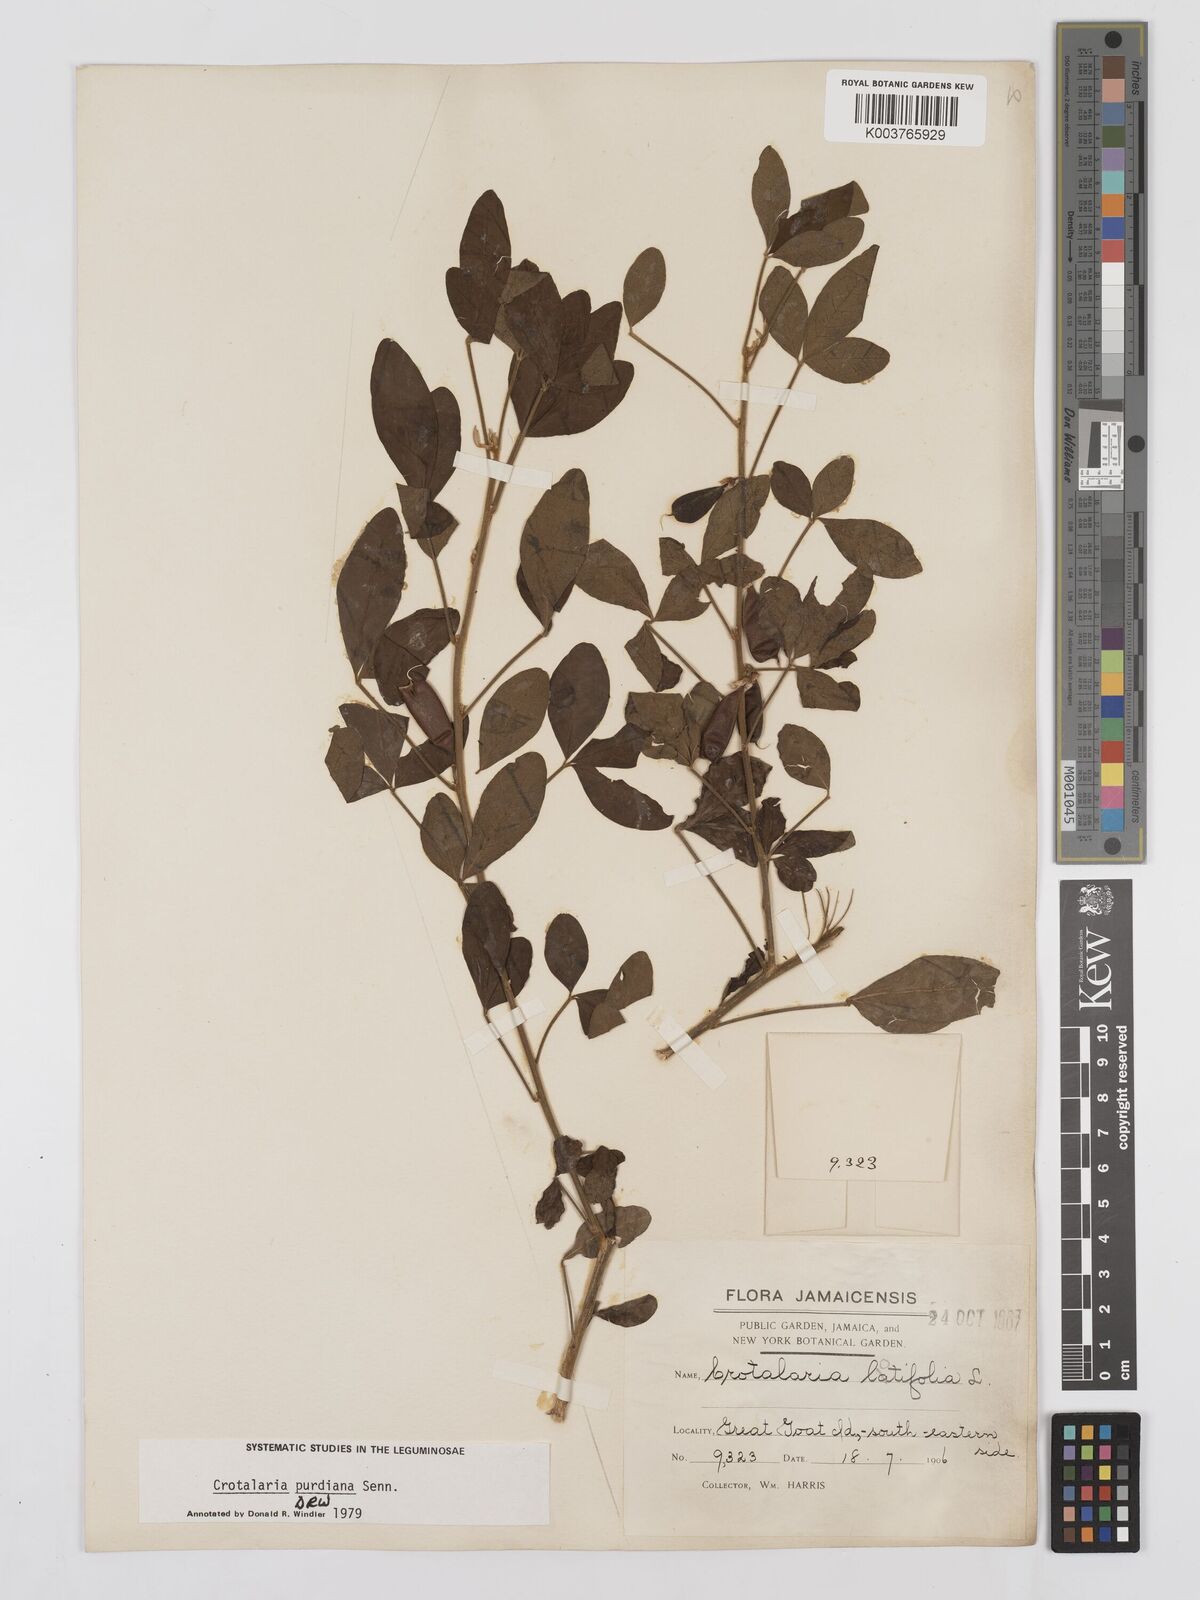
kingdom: Plantae
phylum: Tracheophyta
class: Magnoliopsida
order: Fabales
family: Fabaceae
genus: Crotalaria
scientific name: Crotalaria purdieana
